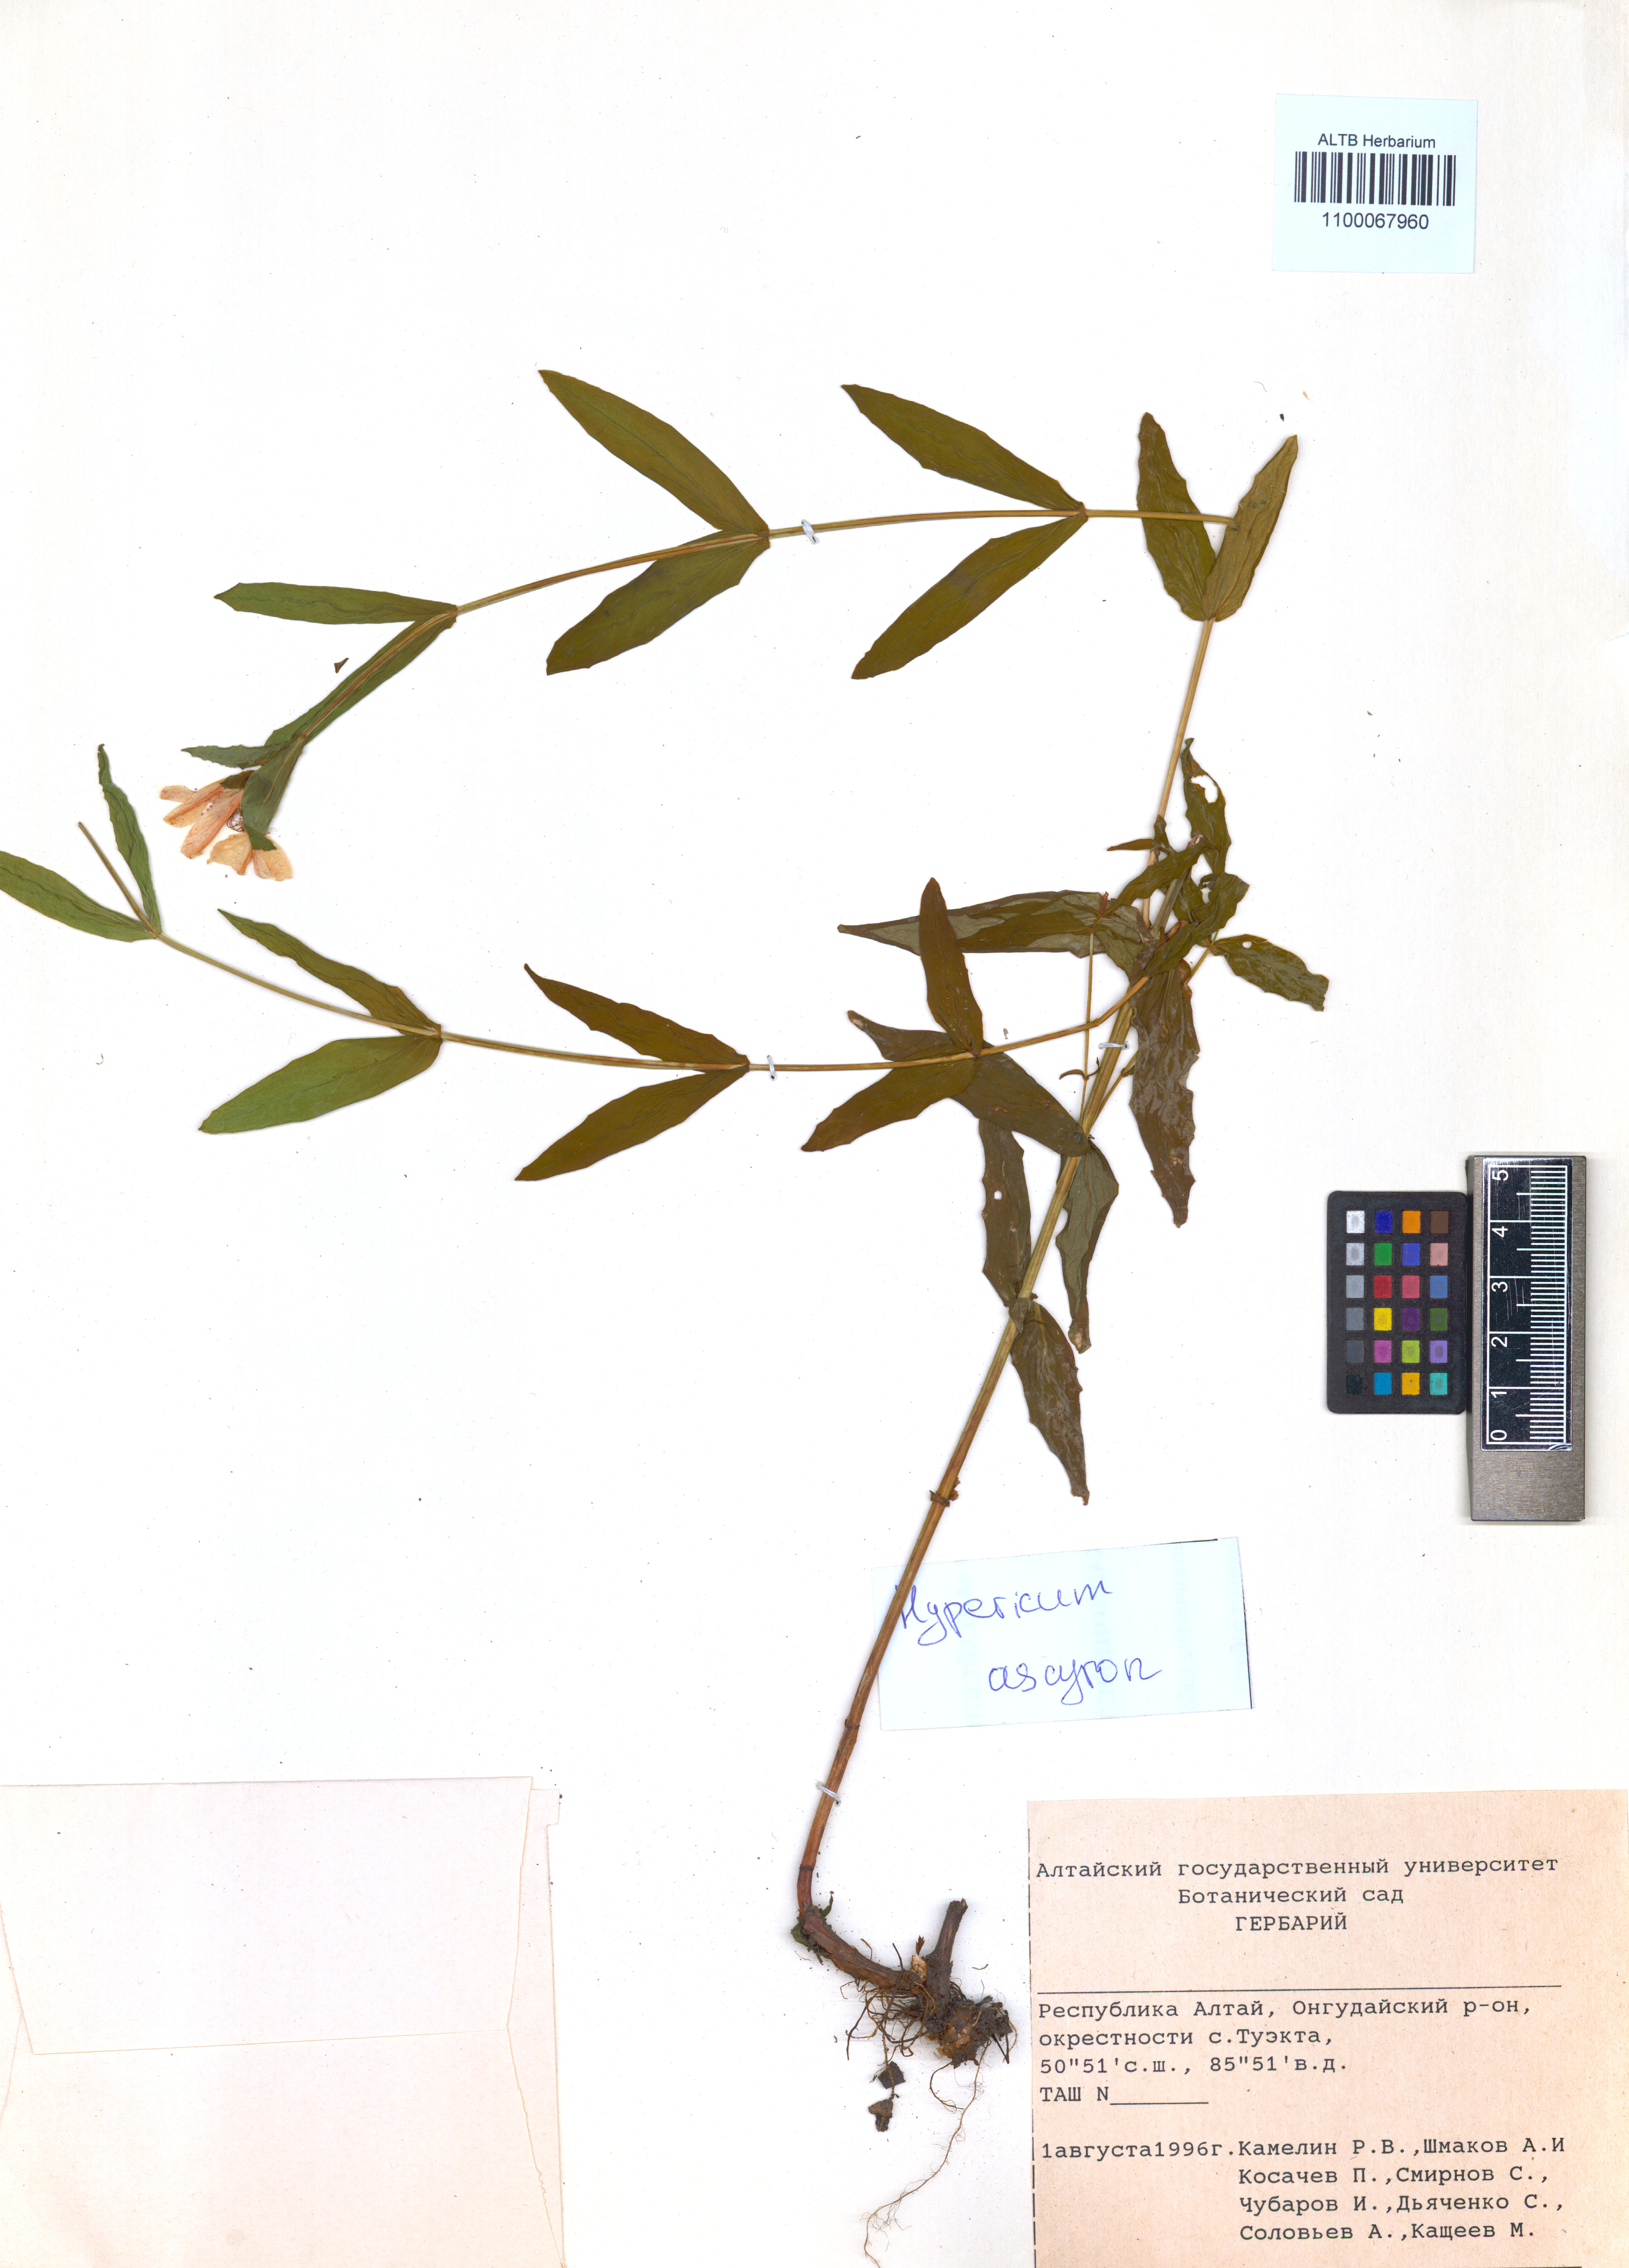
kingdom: Plantae
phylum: Tracheophyta
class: Magnoliopsida
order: Malpighiales
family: Hypericaceae
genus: Hypericum
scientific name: Hypericum ascyron
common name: Giant st. john's-wort
